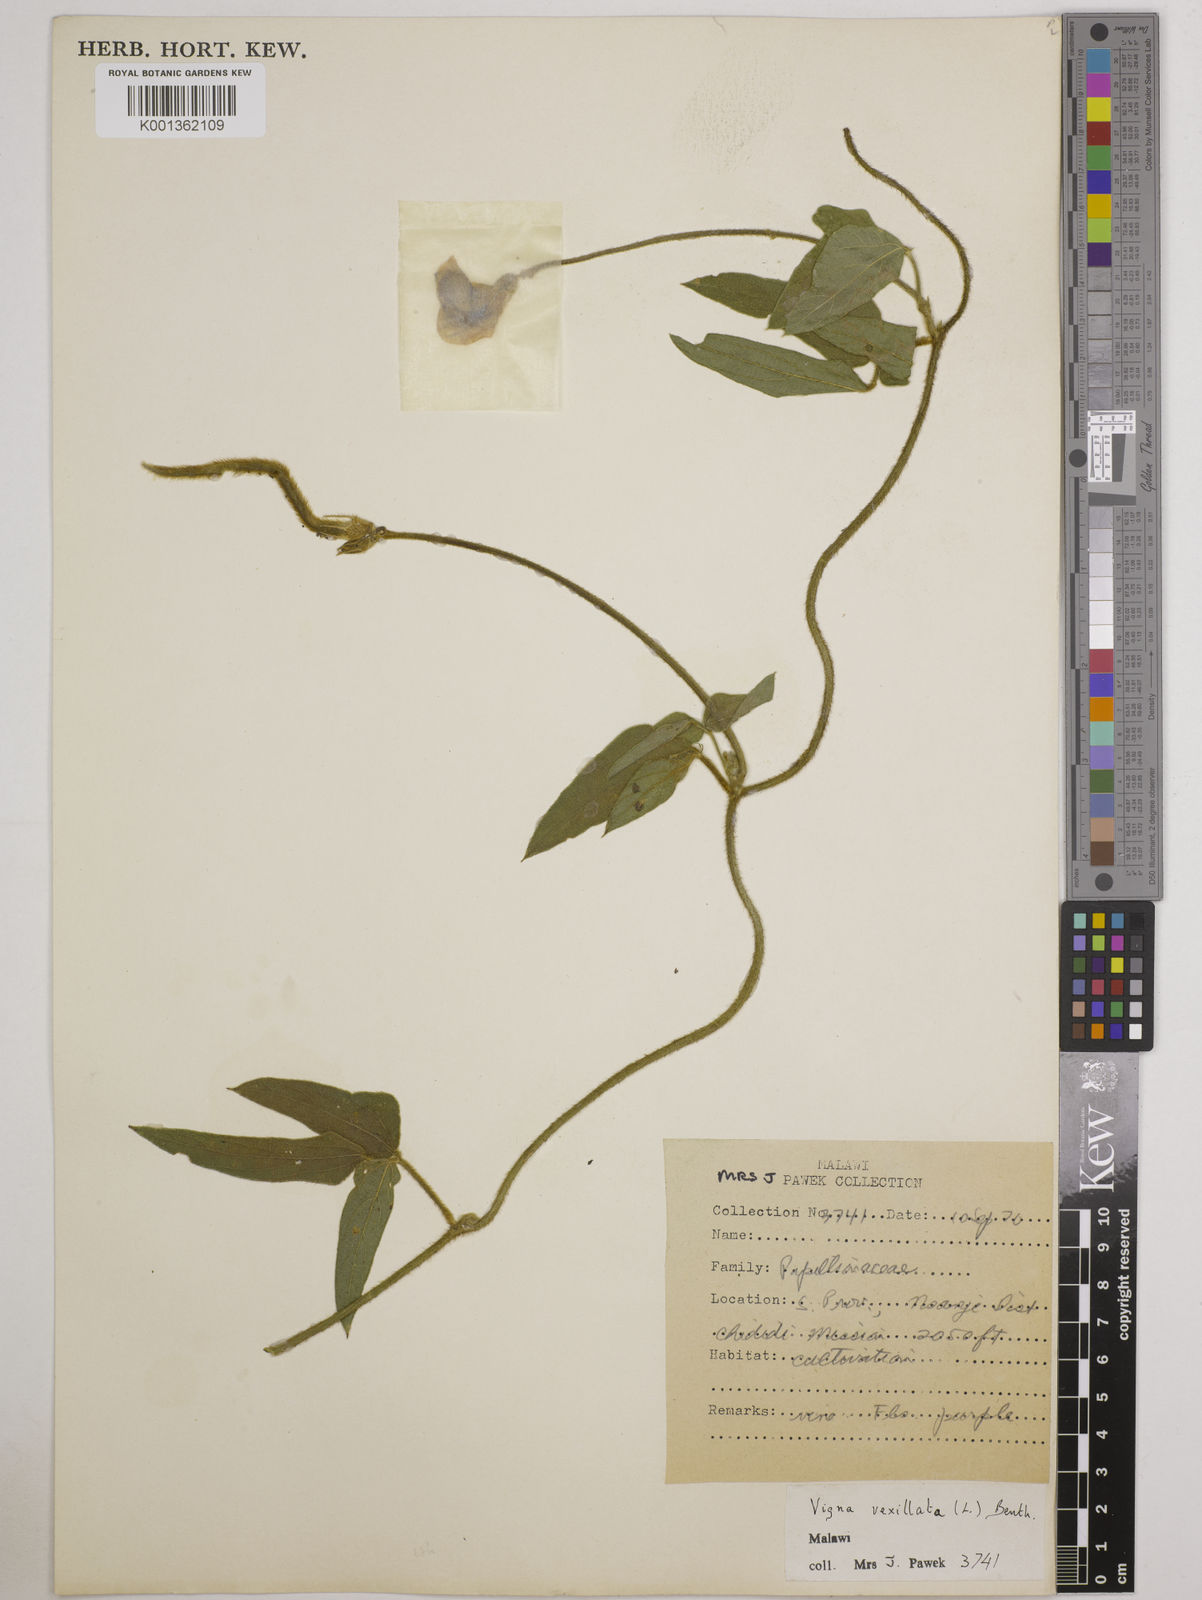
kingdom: Plantae
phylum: Tracheophyta
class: Magnoliopsida
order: Fabales
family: Fabaceae
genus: Vigna
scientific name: Vigna vexillata
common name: Zombi pea
